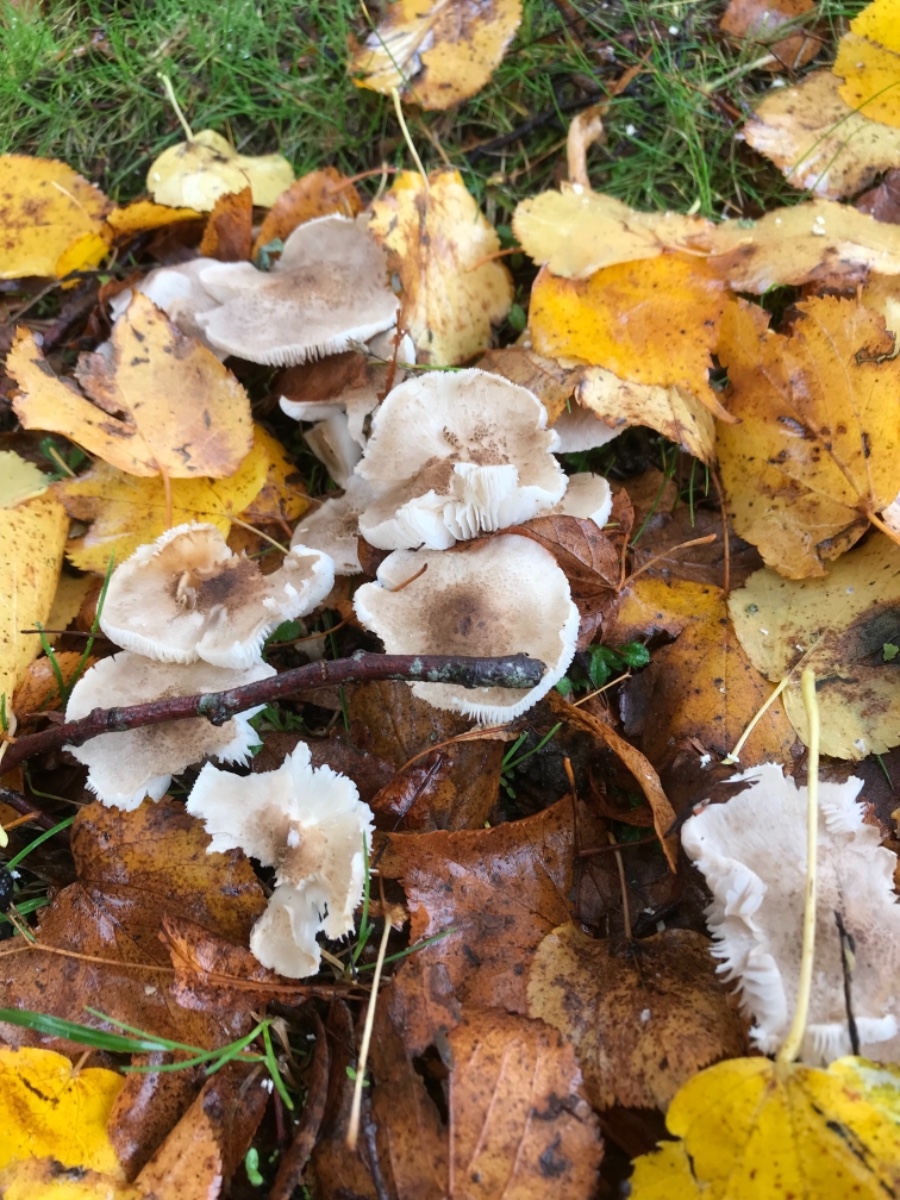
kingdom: Fungi
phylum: Basidiomycota
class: Agaricomycetes
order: Agaricales
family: Tricholomataceae
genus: Tricholoma
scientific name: Tricholoma scalpturatum
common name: gulplettet ridderhat
